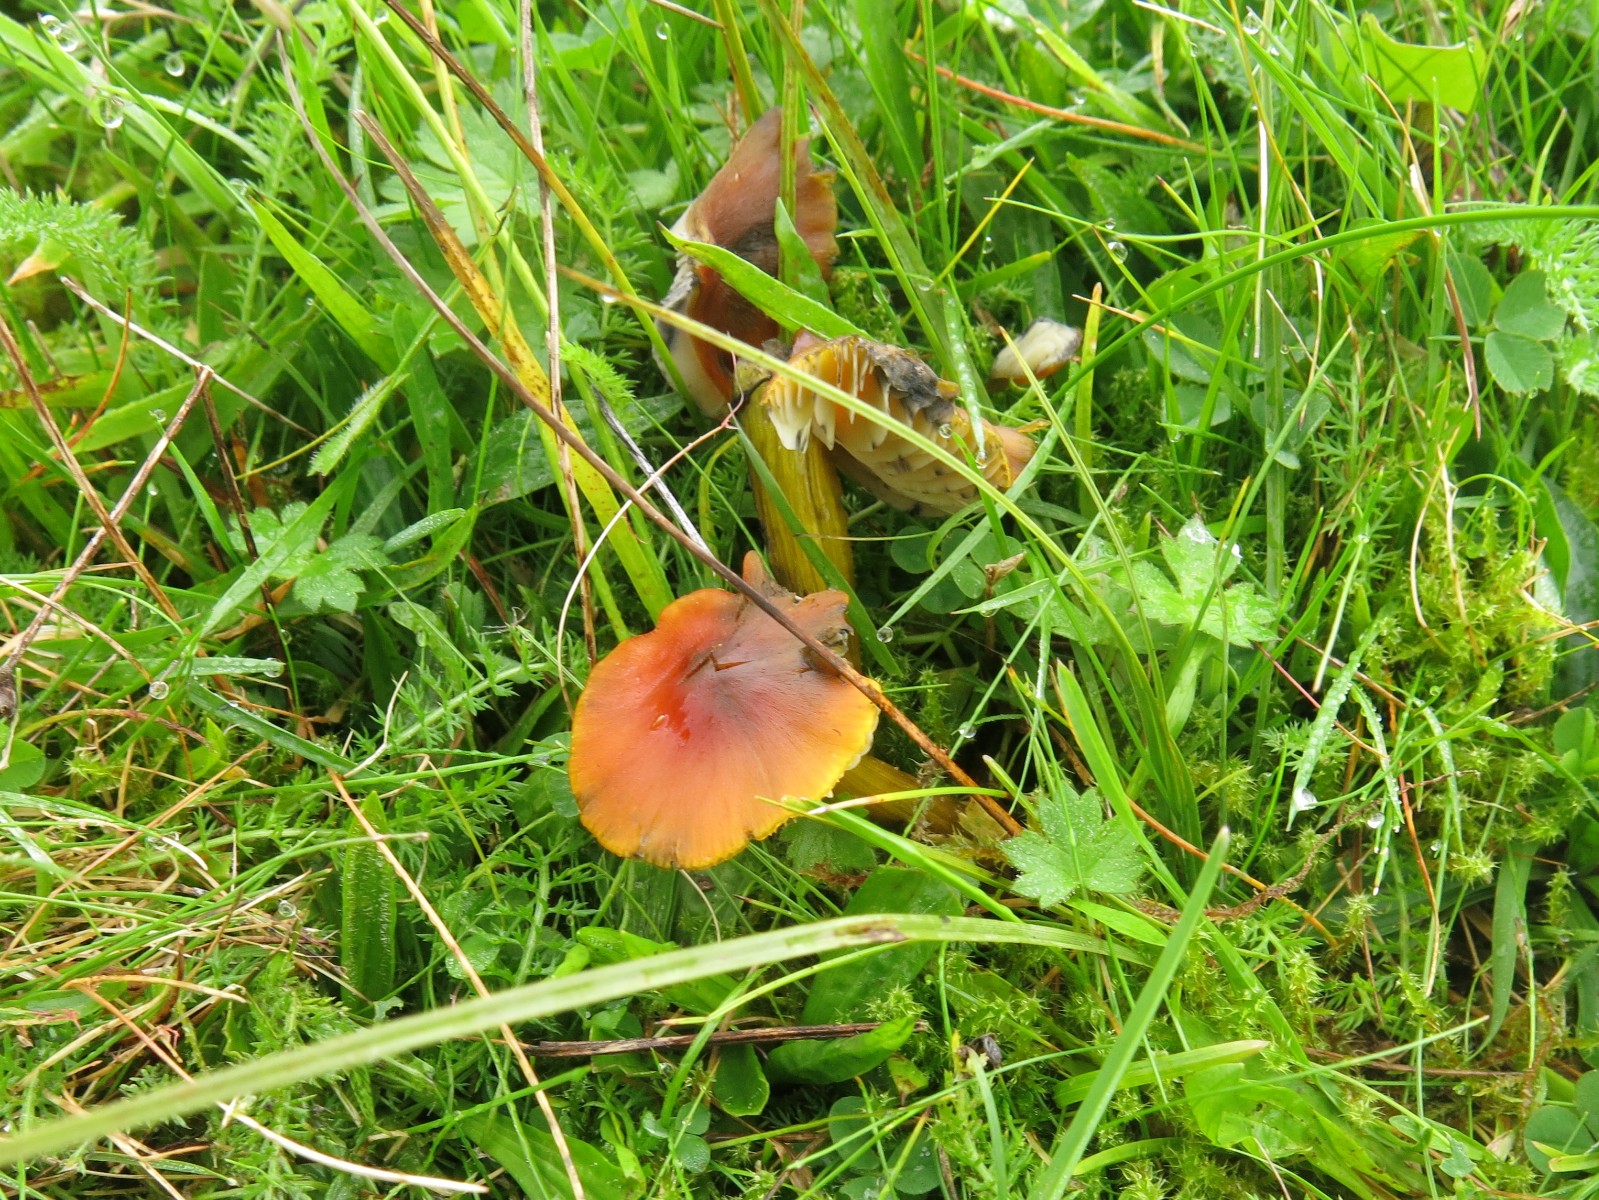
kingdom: Fungi
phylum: Basidiomycota
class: Agaricomycetes
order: Agaricales
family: Hygrophoraceae
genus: Hygrocybe
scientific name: Hygrocybe conica
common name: kegle-vokshat
